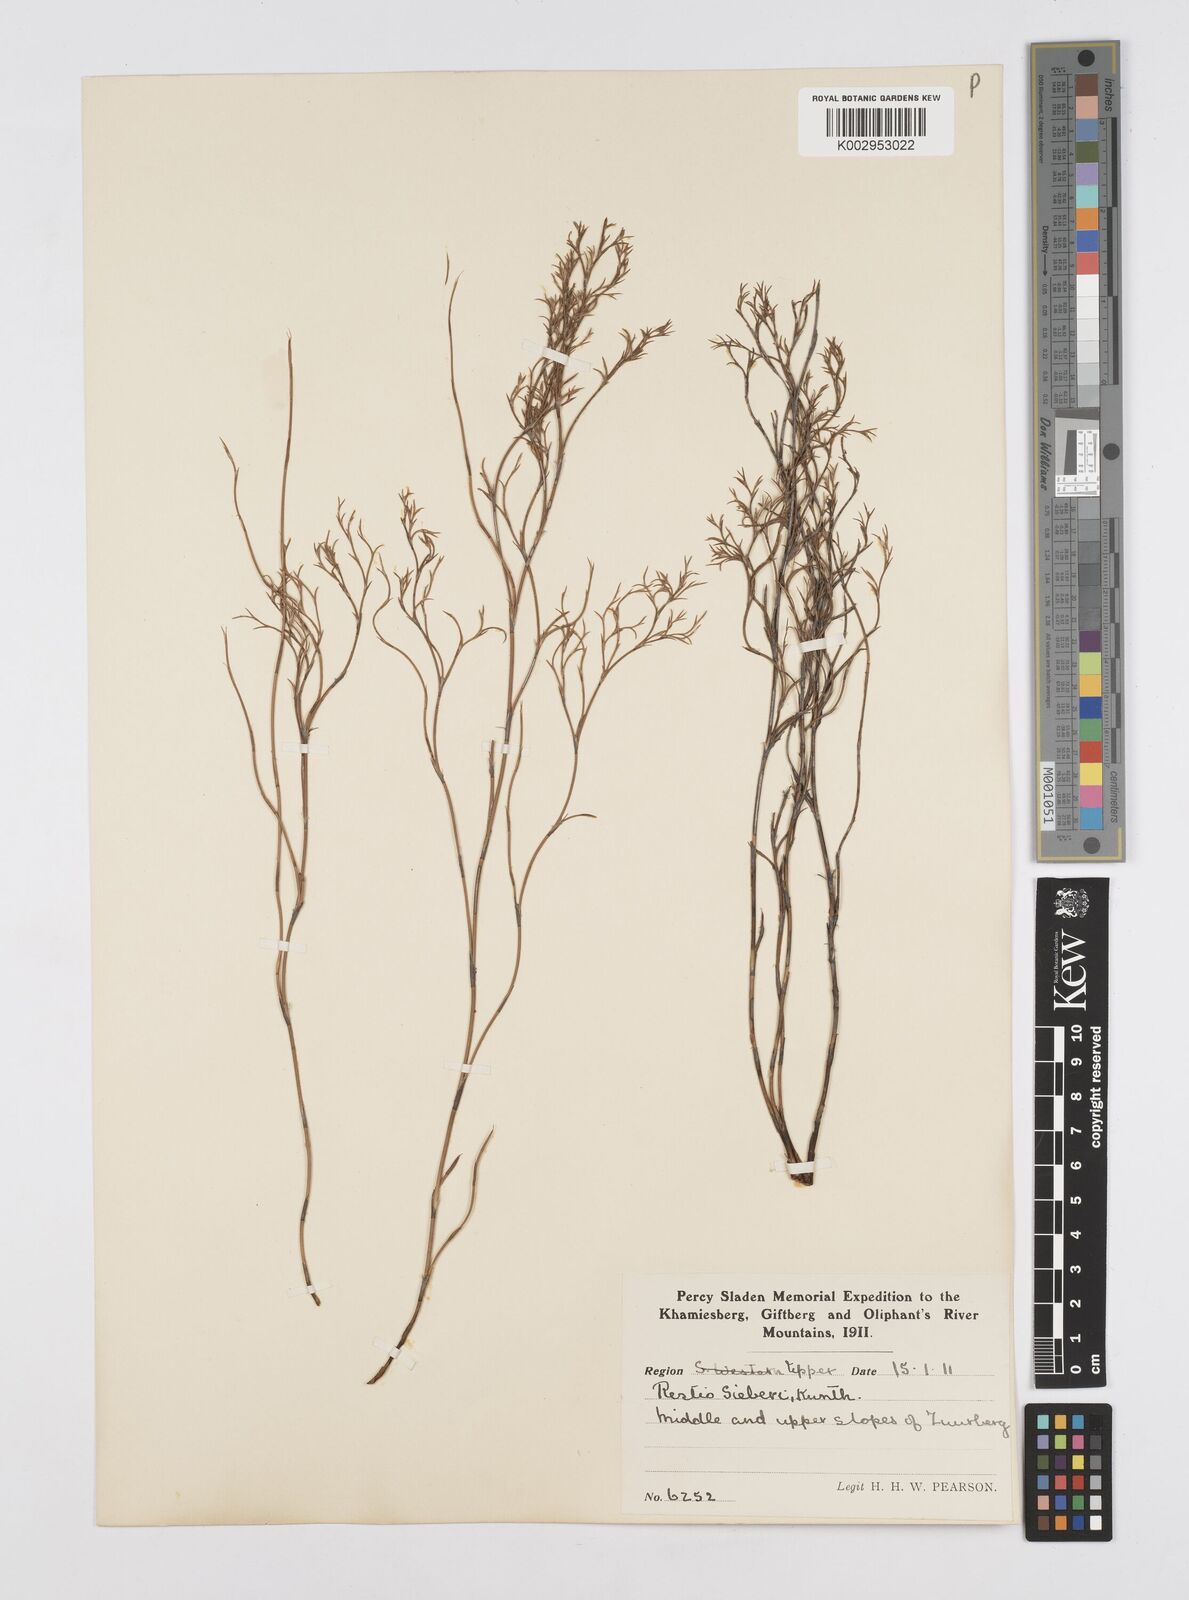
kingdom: Plantae
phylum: Tracheophyta
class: Liliopsida
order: Poales
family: Restionaceae
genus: Restio
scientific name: Restio sieberi
